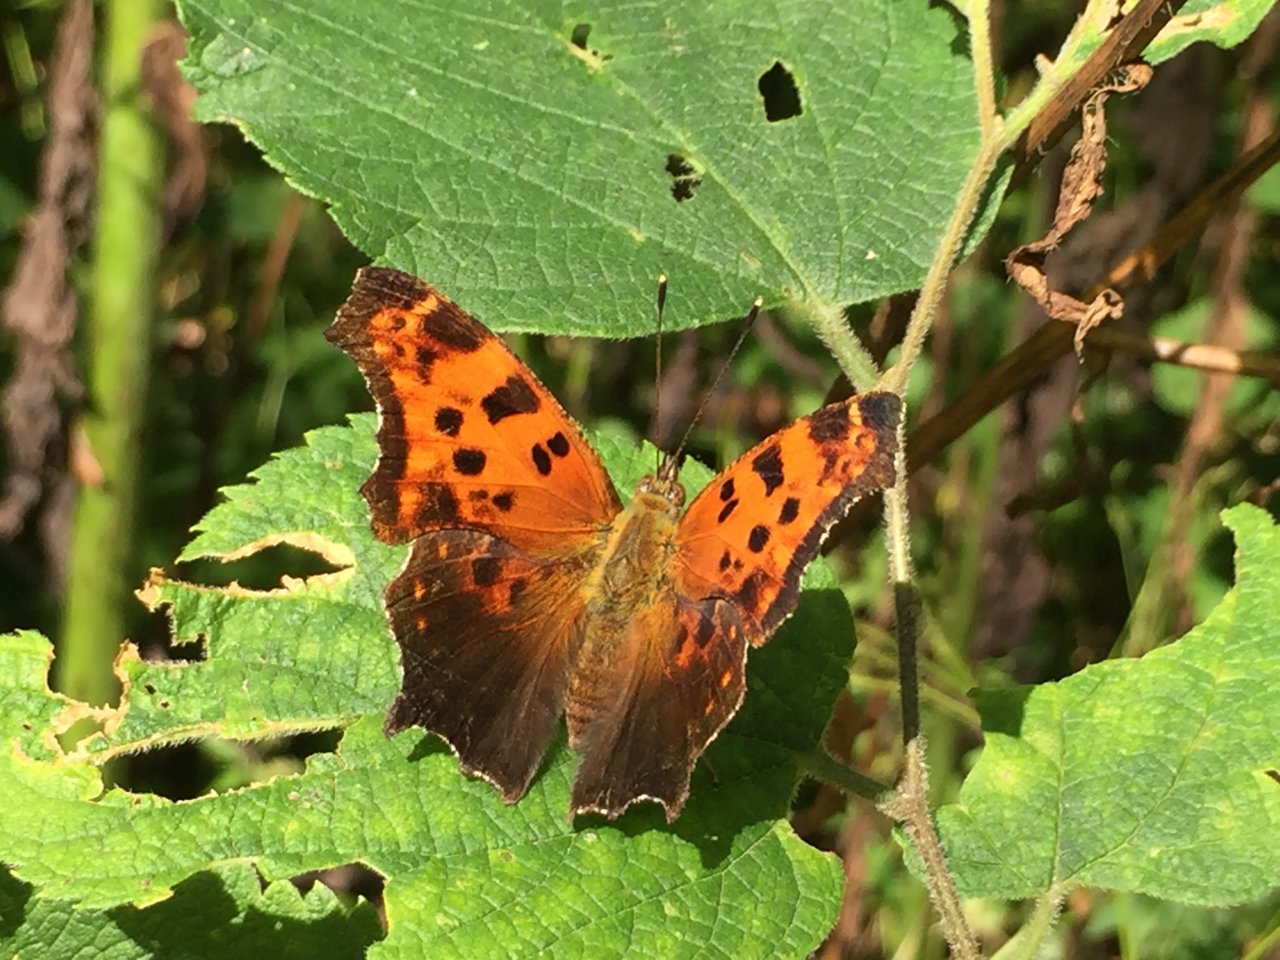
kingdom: Animalia
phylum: Arthropoda
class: Insecta
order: Lepidoptera
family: Nymphalidae
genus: Polygonia
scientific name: Polygonia comma
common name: Eastern Comma
